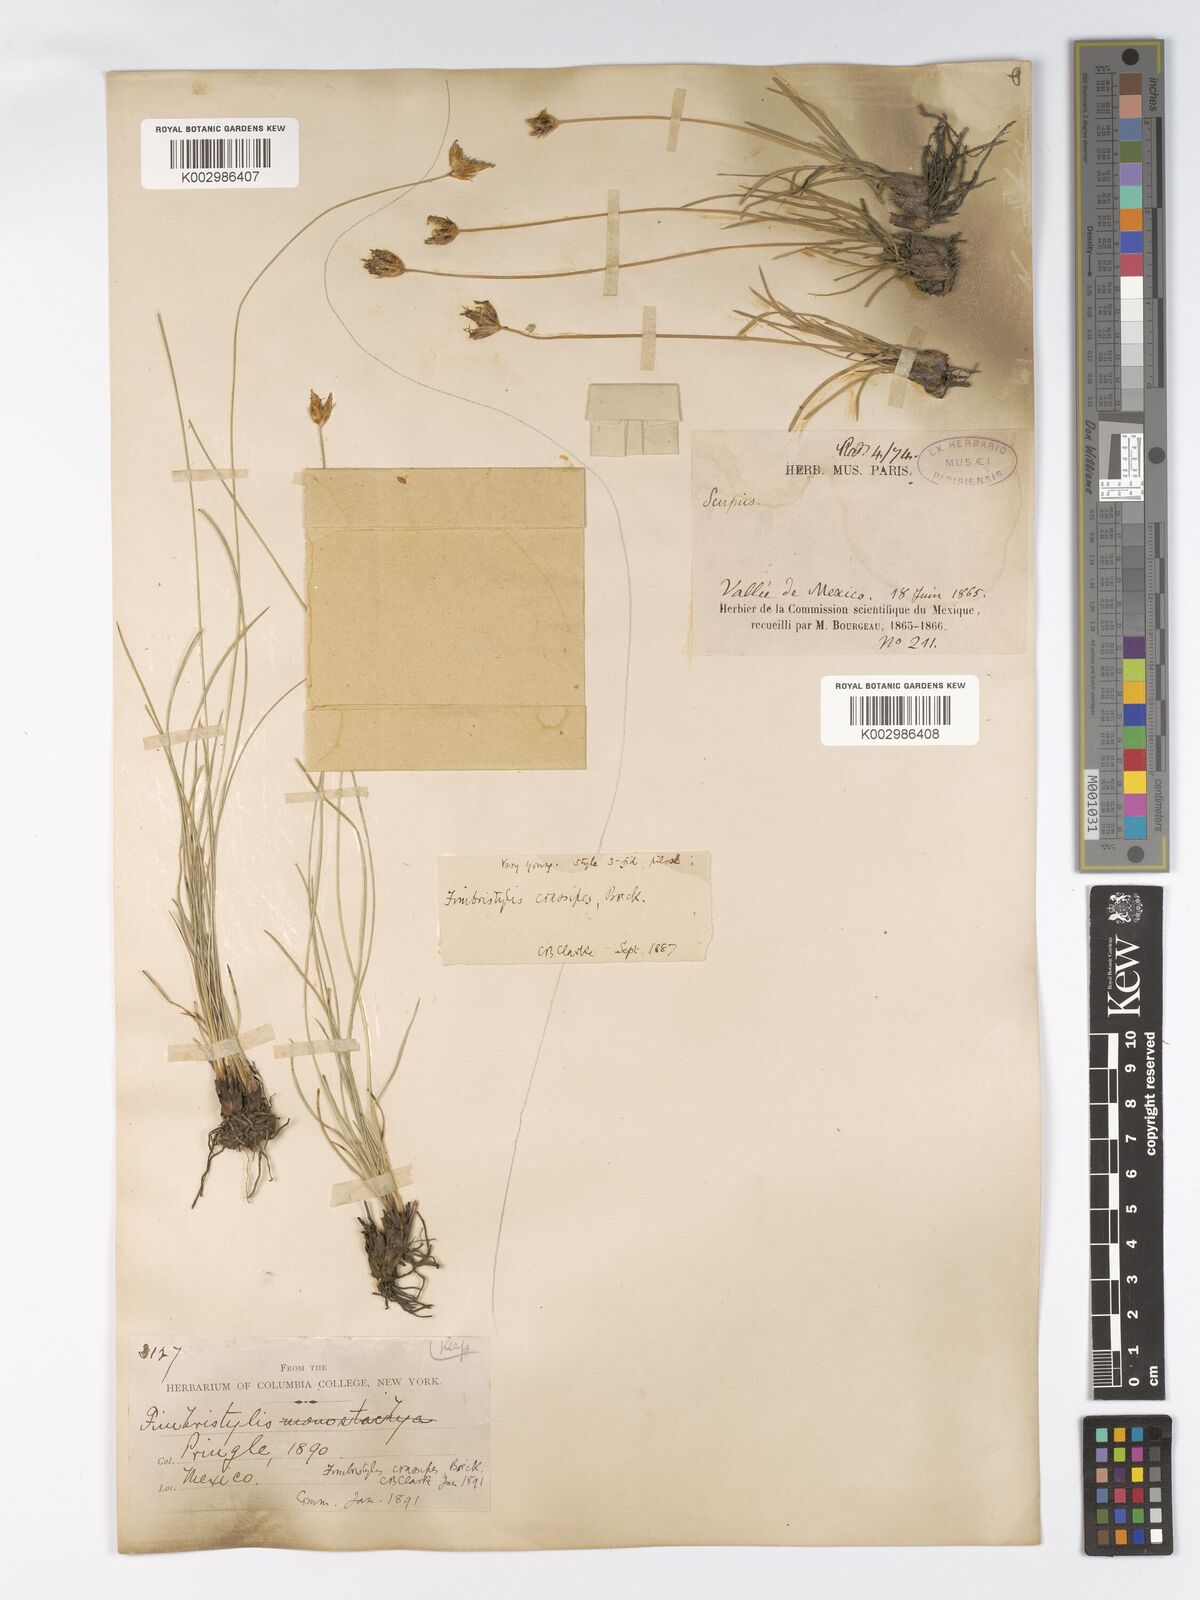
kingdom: Plantae
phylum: Tracheophyta
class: Liliopsida
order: Poales
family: Cyperaceae
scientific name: Cyperaceae
